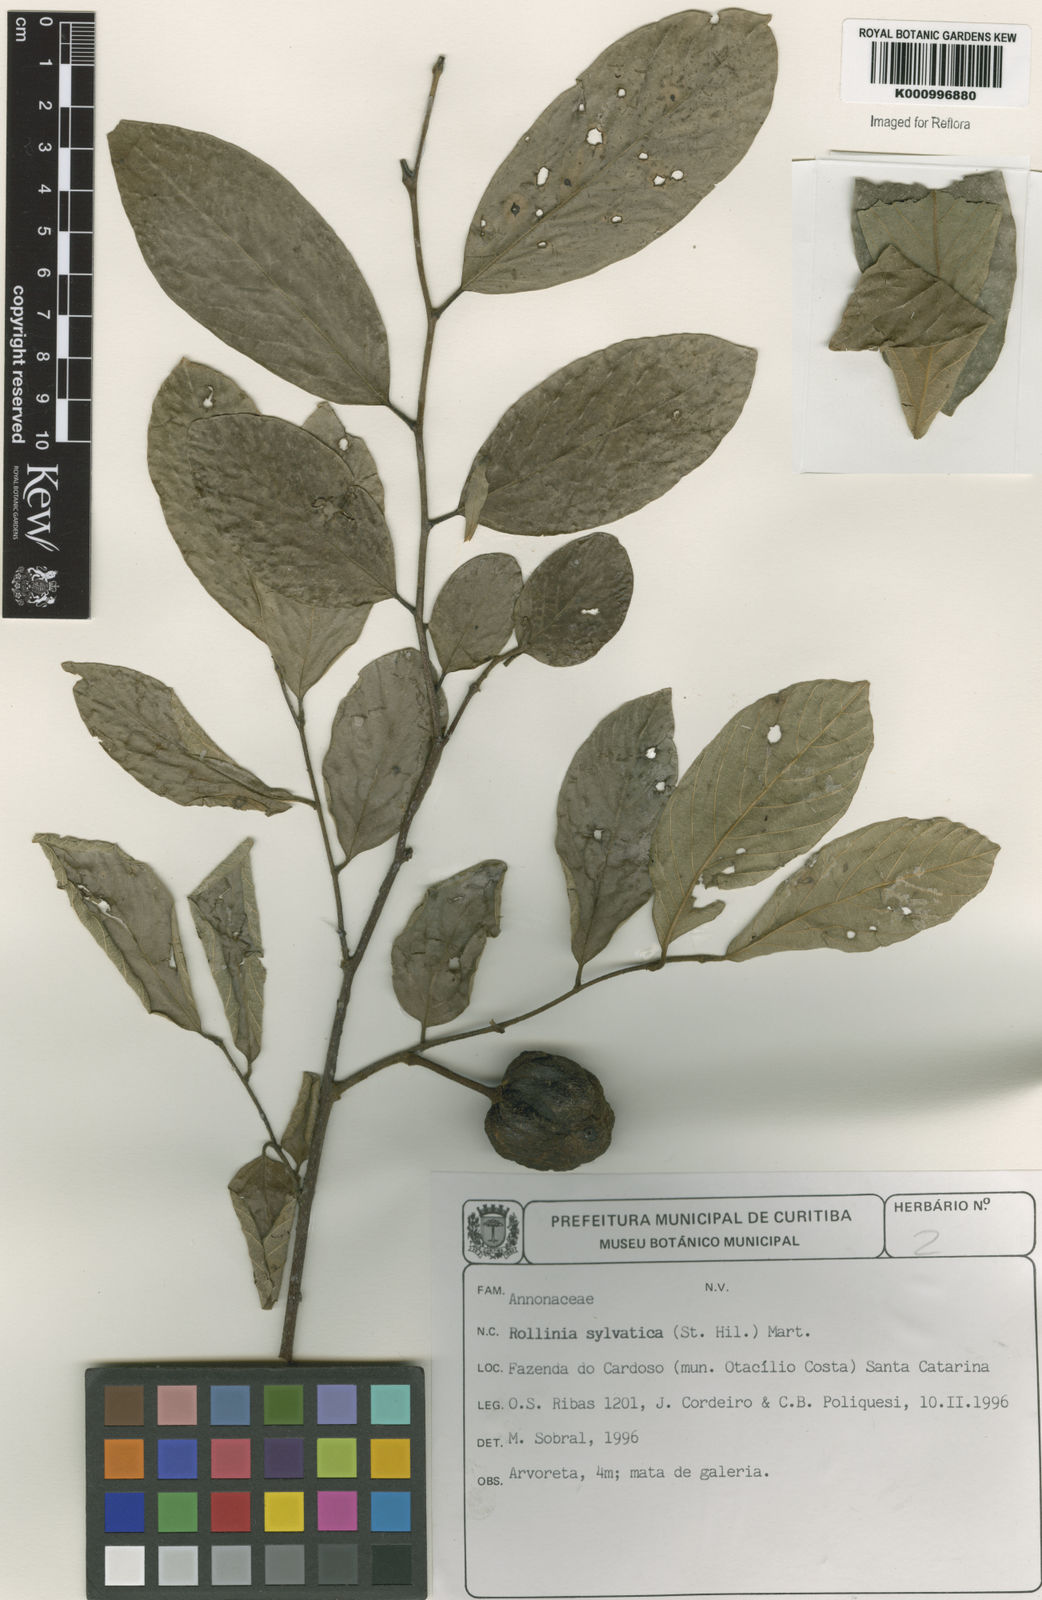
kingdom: Plantae
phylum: Tracheophyta
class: Magnoliopsida
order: Magnoliales
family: Annonaceae
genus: Annona
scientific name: Annona sylvatica
